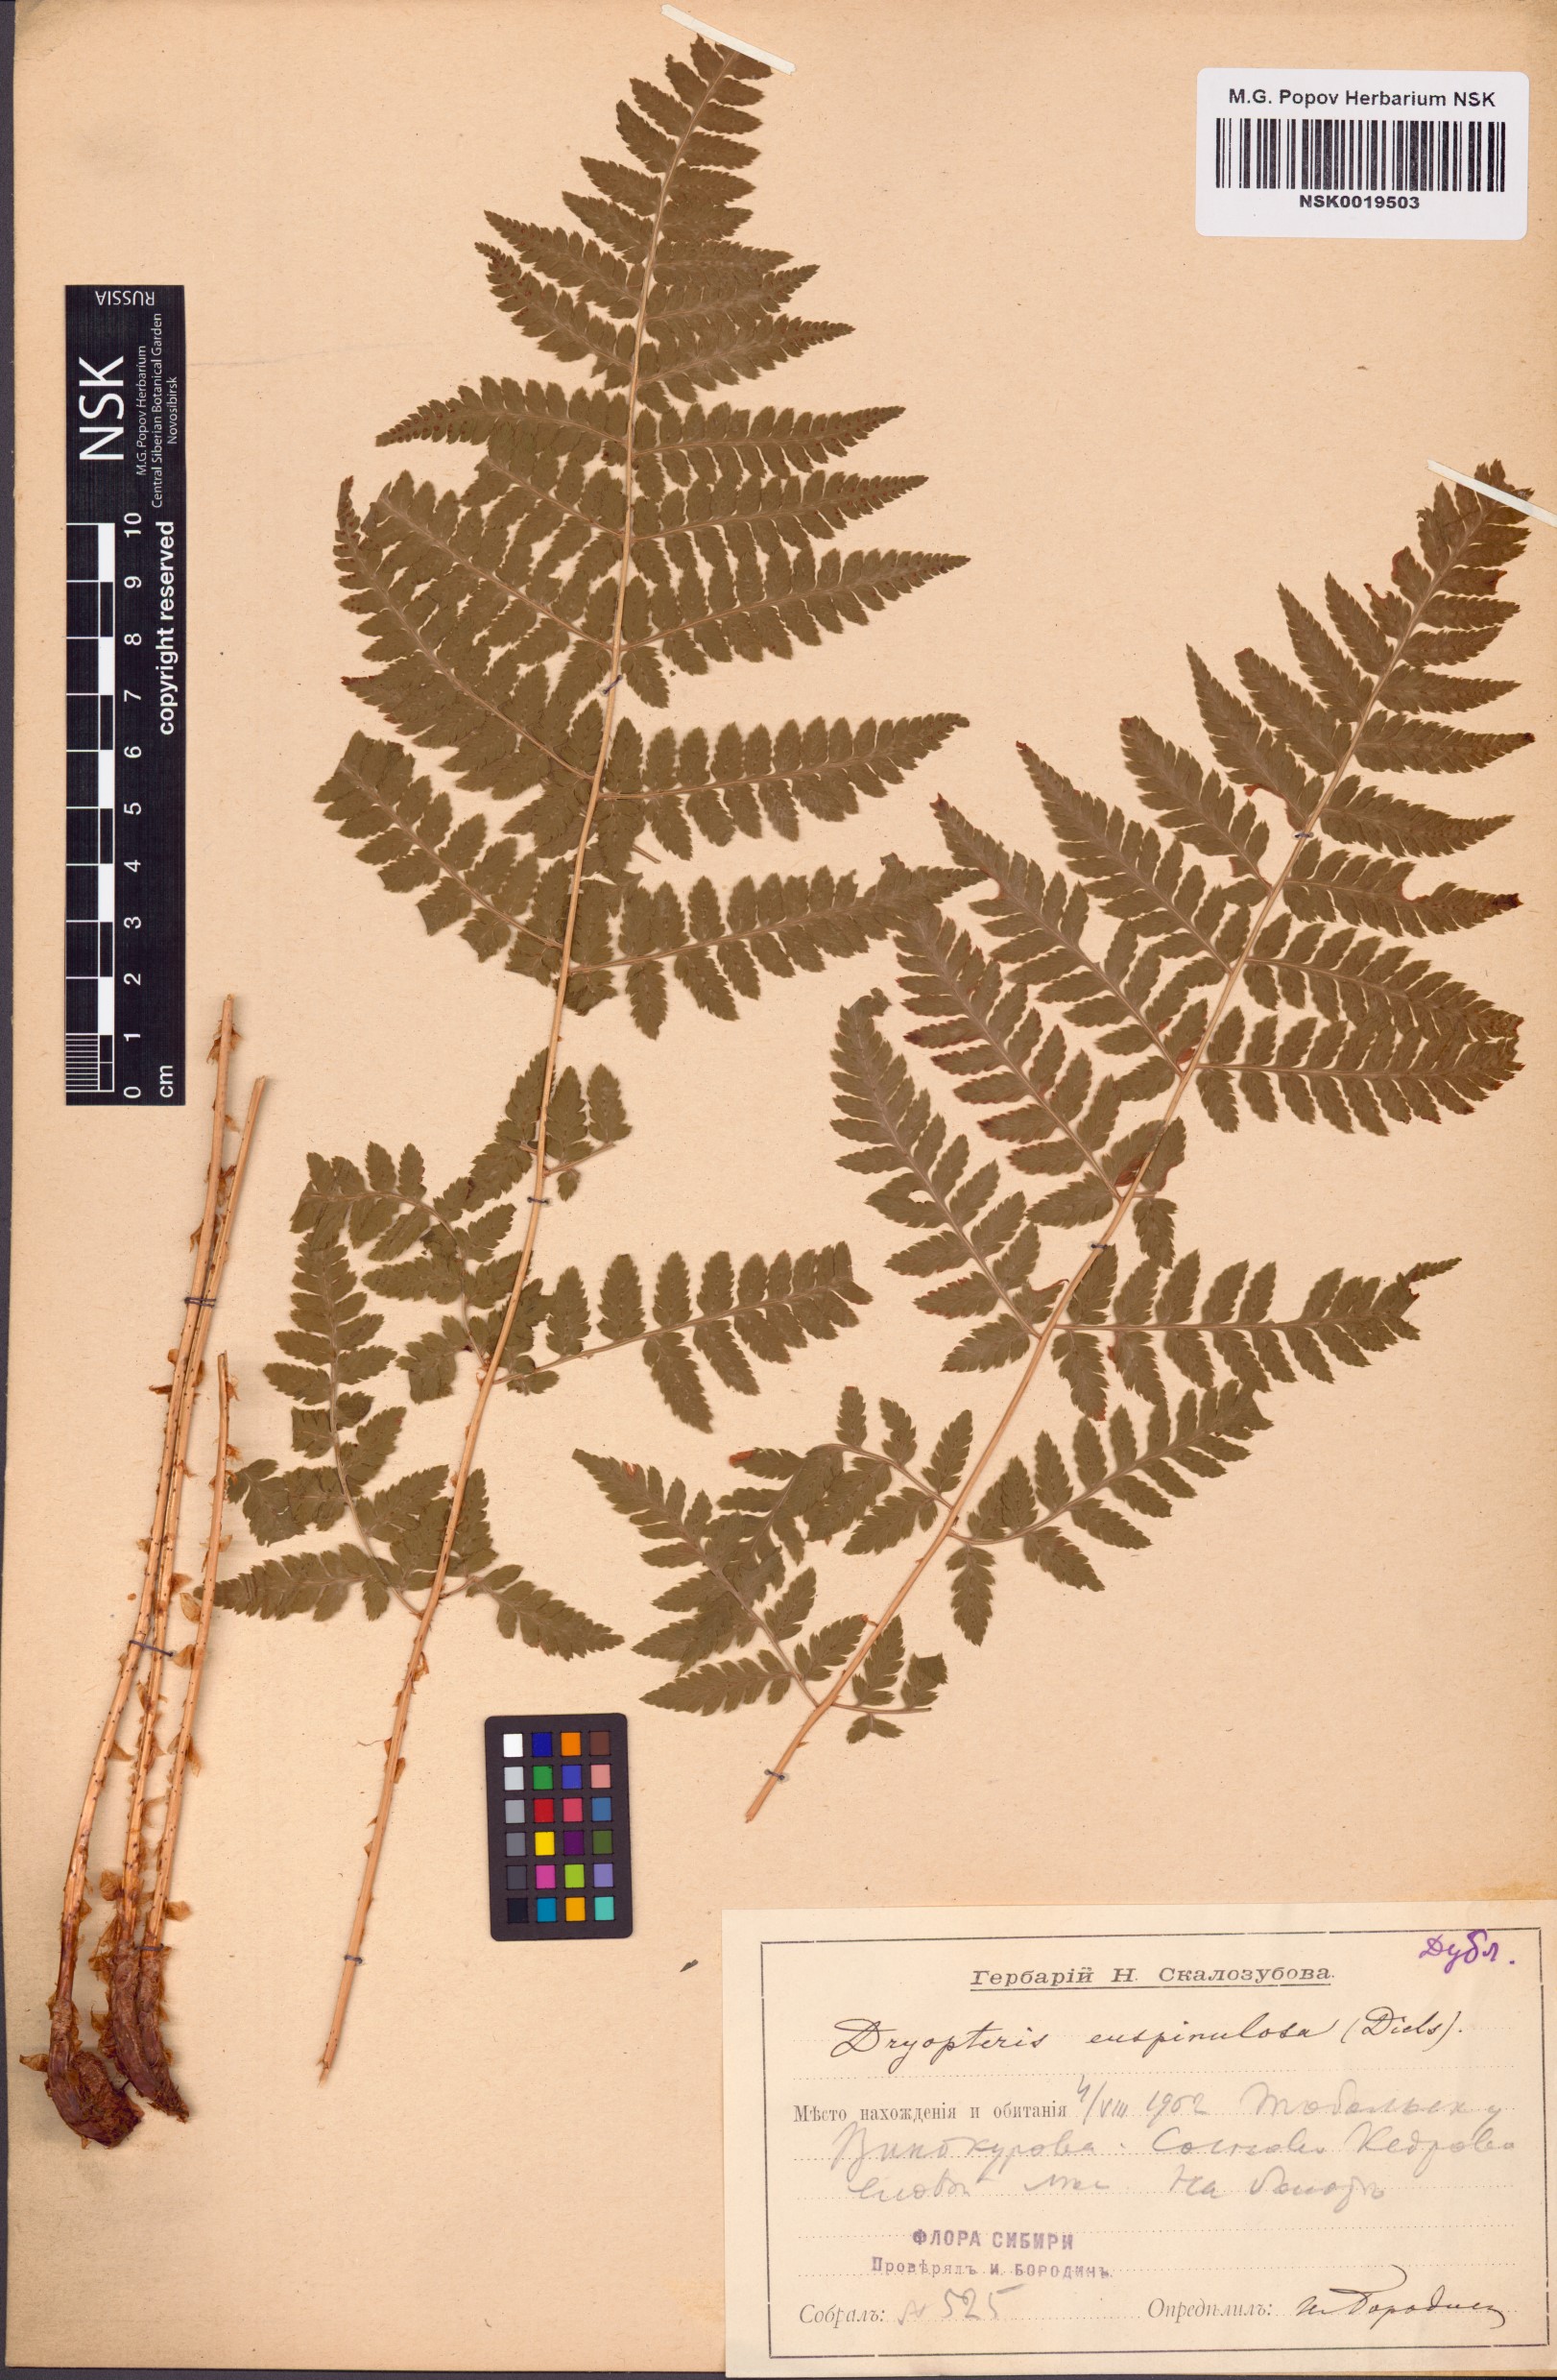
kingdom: Plantae
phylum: Tracheophyta
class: Polypodiopsida
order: Polypodiales
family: Dryopteridaceae
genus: Dryopteris
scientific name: Dryopteris carthusiana
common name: Narrow buckler-fern
